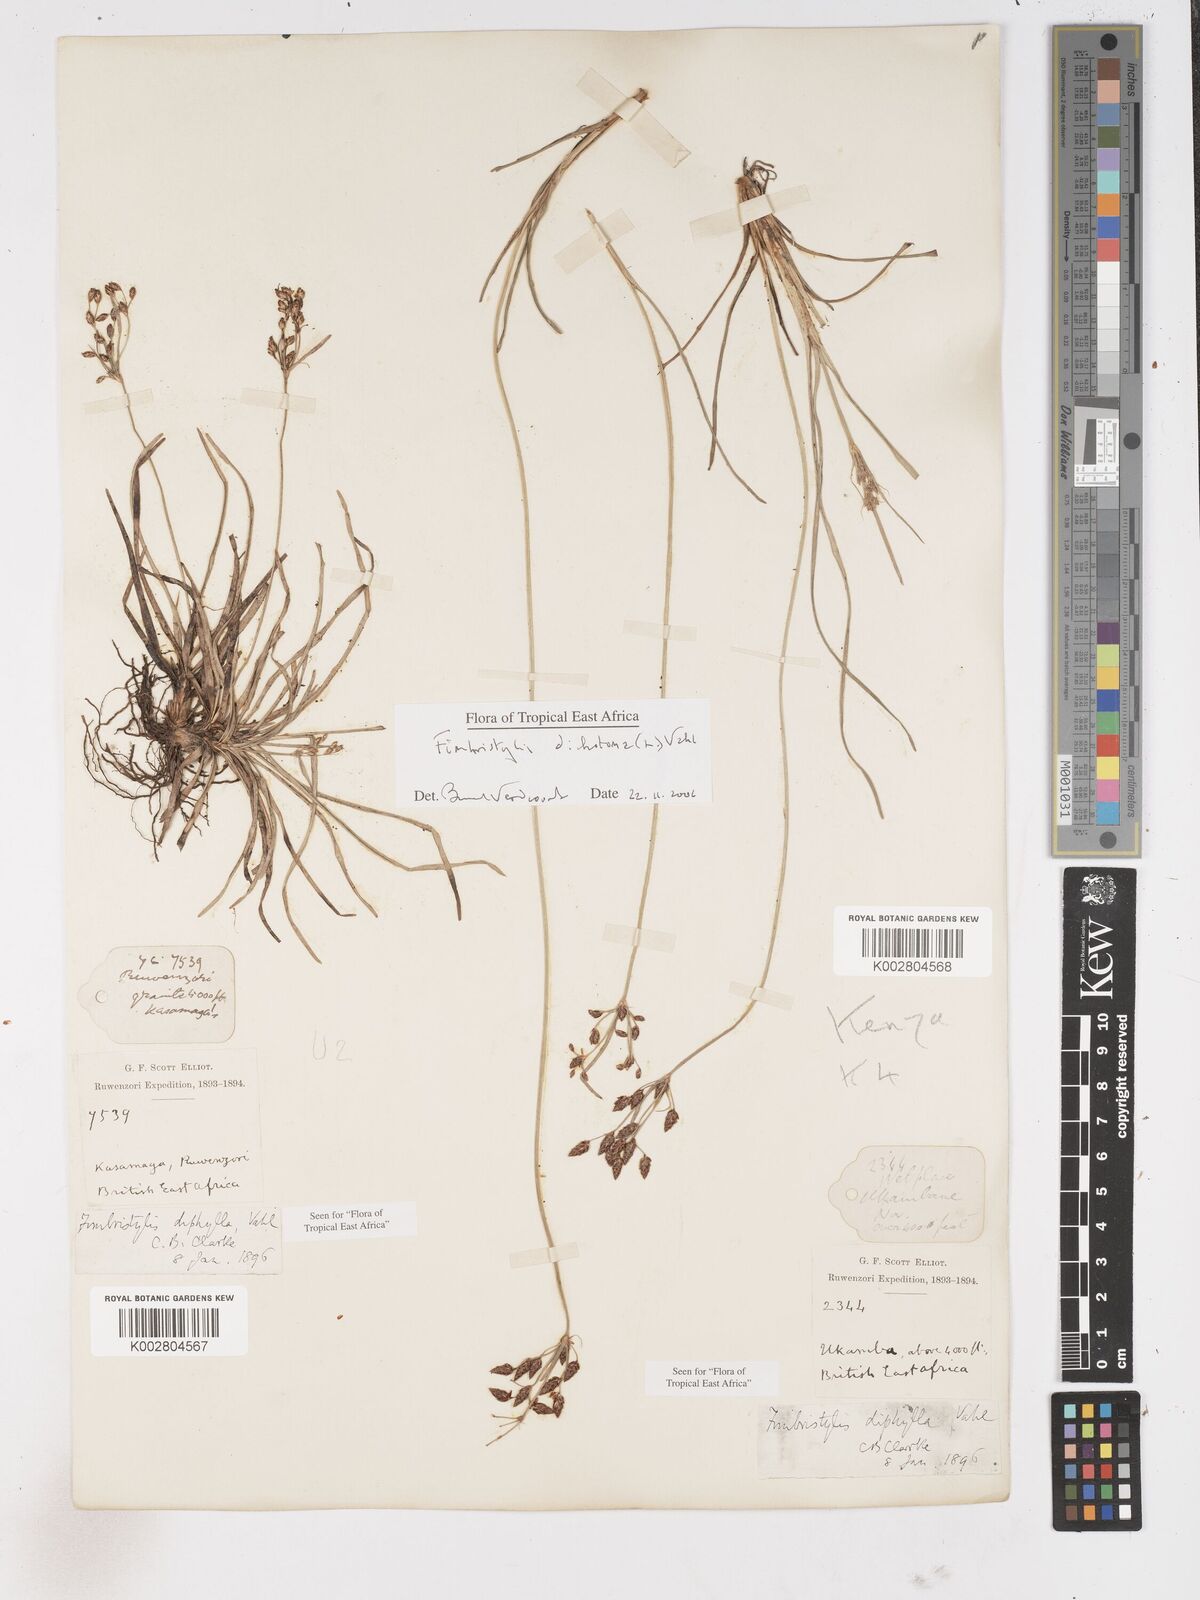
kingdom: Plantae
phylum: Tracheophyta
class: Liliopsida
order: Poales
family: Cyperaceae
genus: Fimbristylis
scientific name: Fimbristylis dichotoma
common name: Forked fimbry
